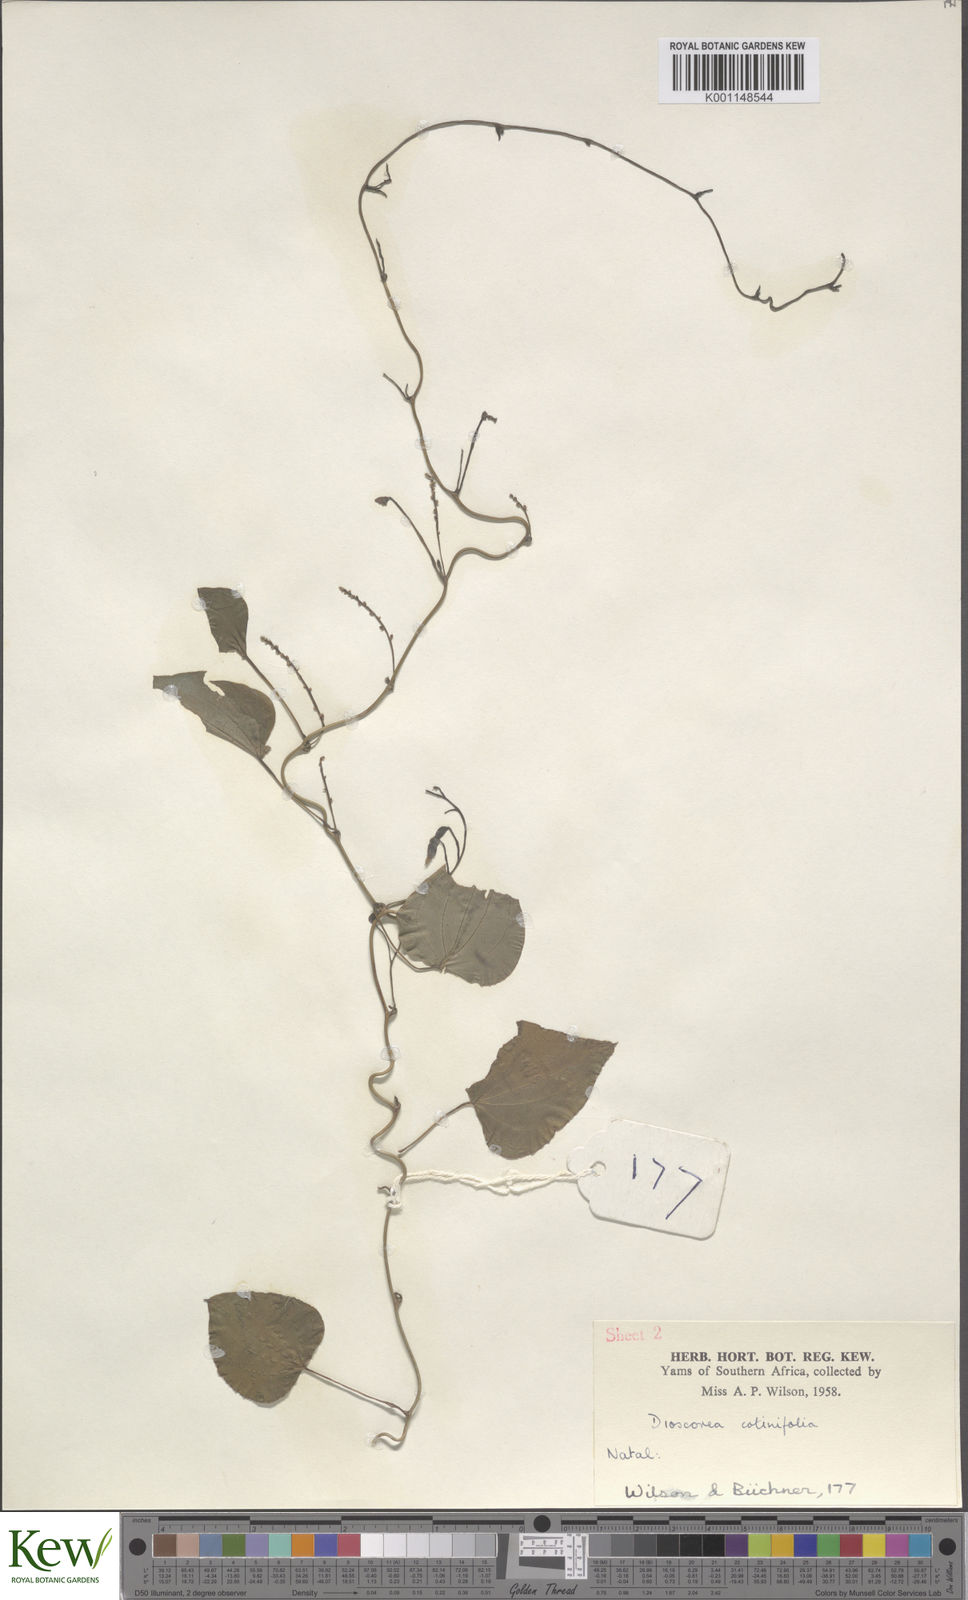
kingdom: Plantae
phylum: Tracheophyta
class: Liliopsida
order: Dioscoreales
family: Dioscoreaceae
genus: Dioscorea
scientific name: Dioscorea cotinifolia
